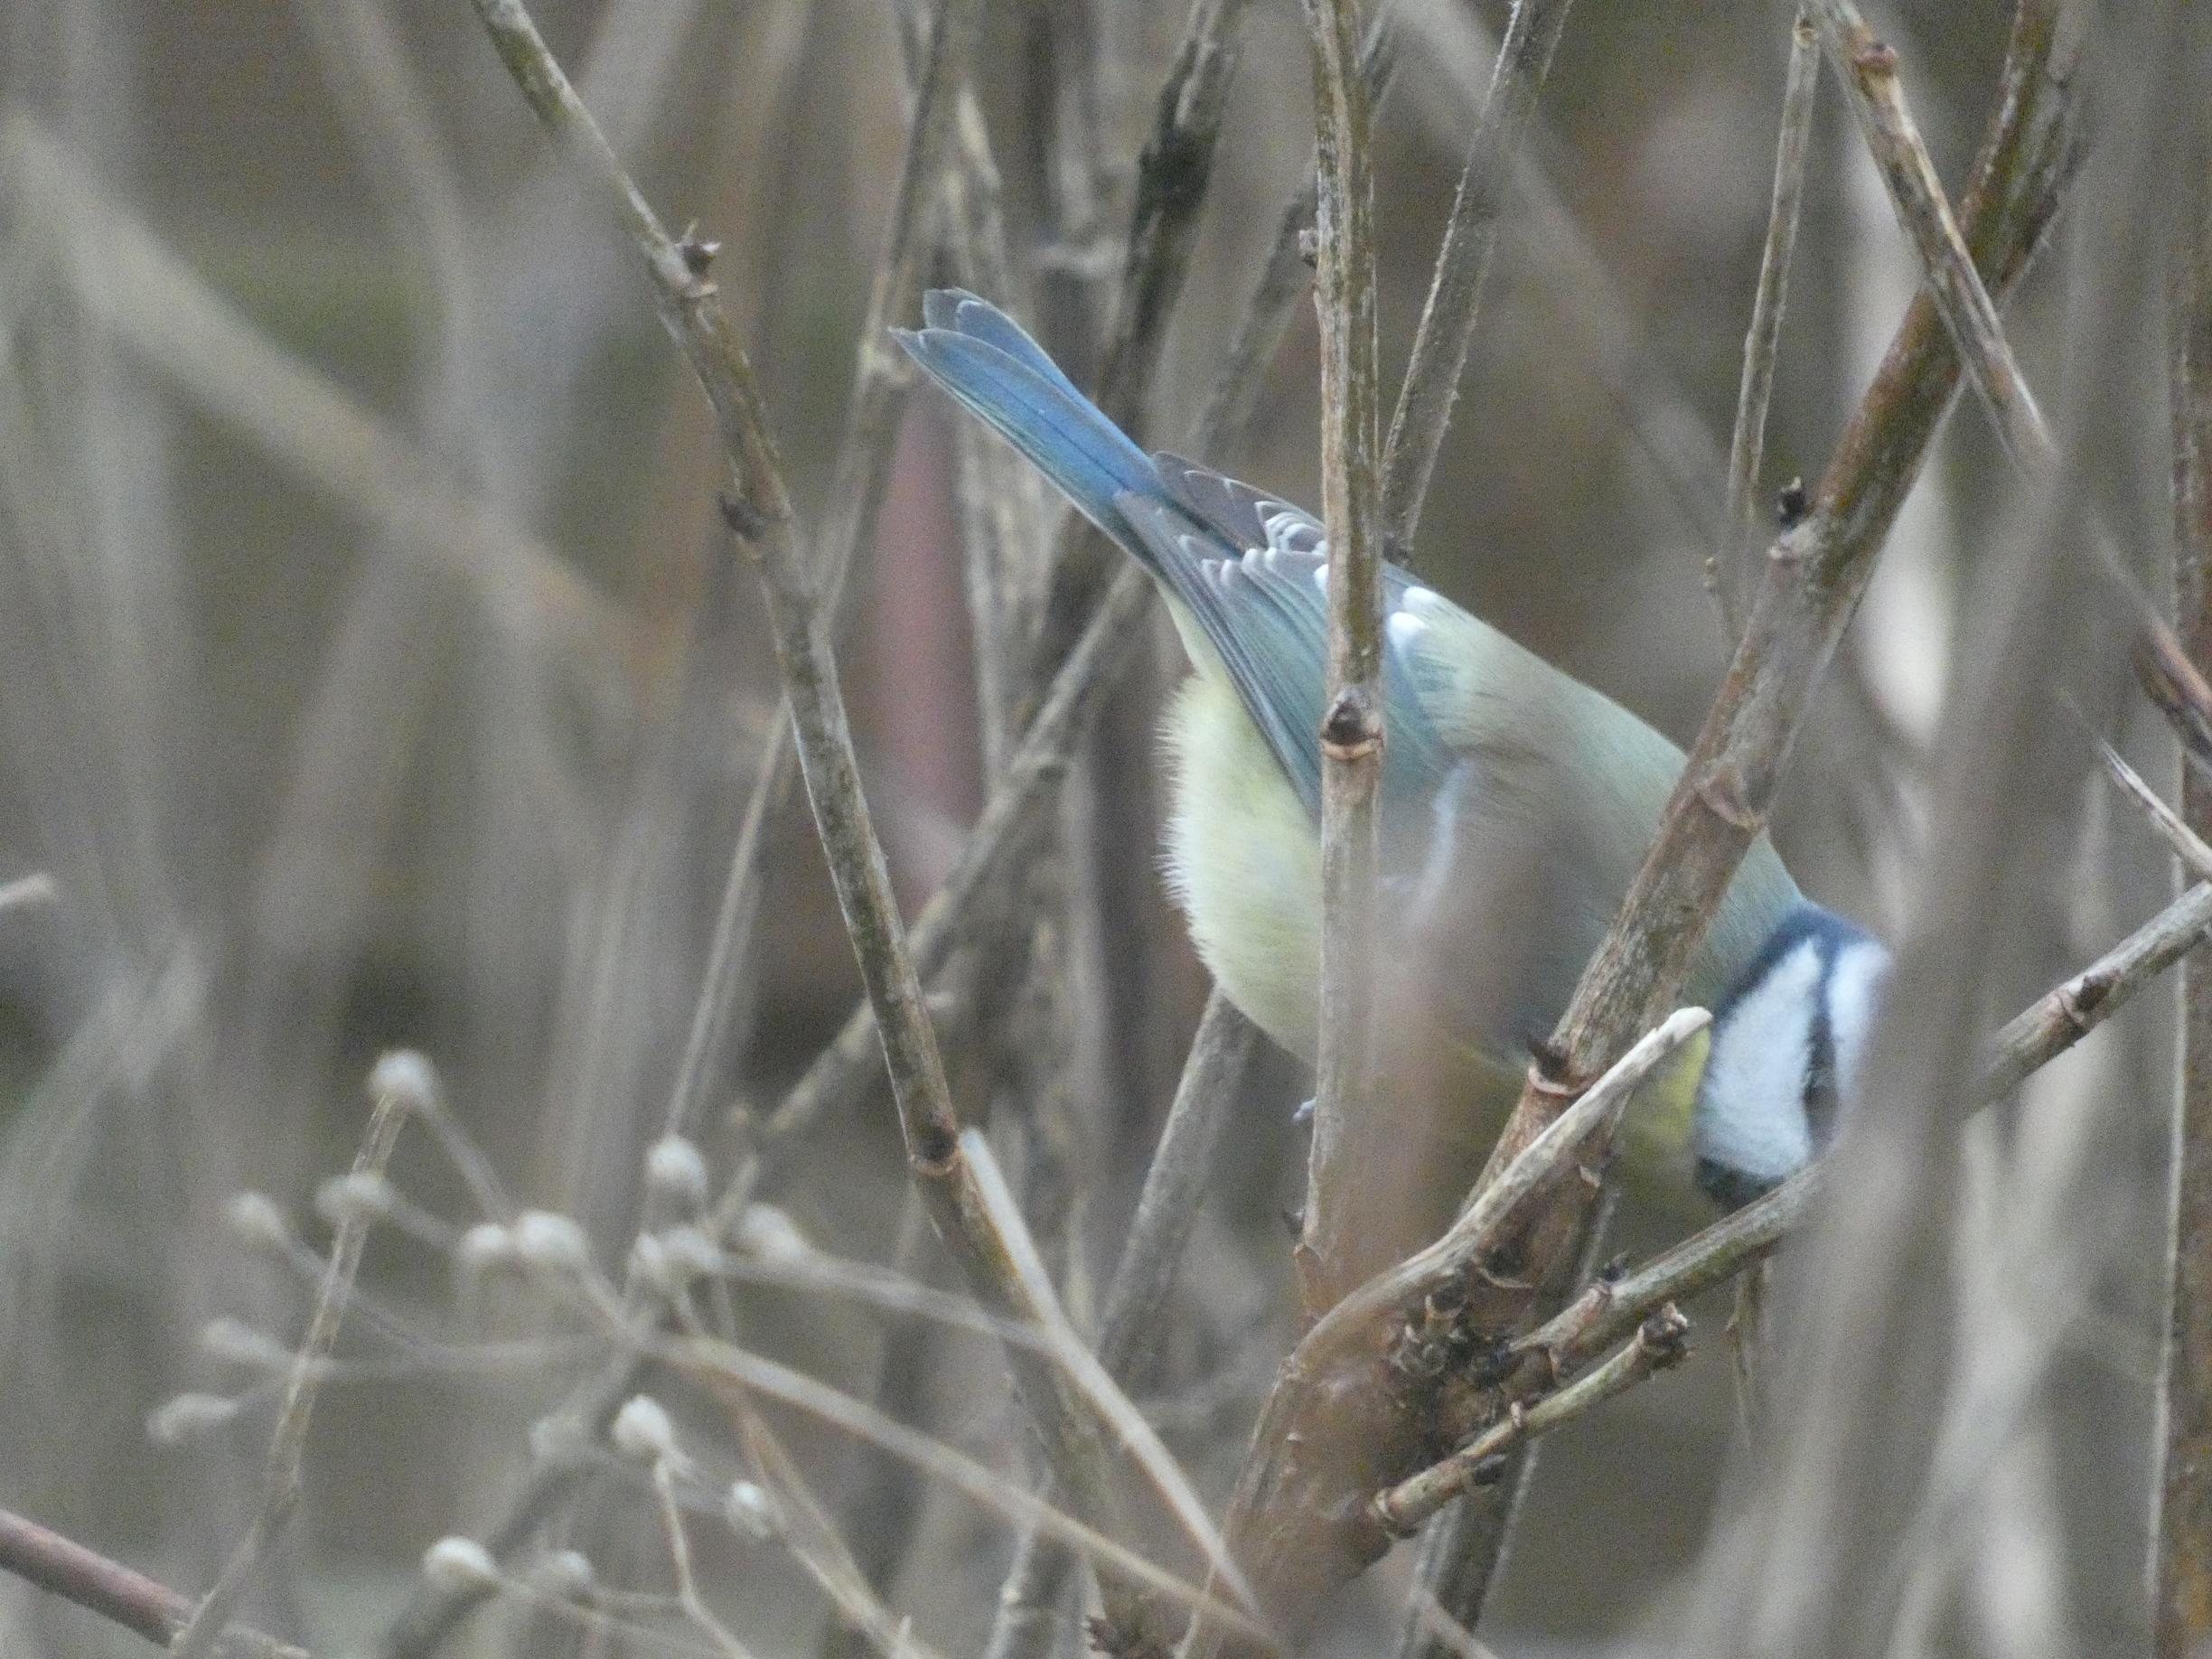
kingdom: Animalia
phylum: Chordata
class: Aves
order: Passeriformes
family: Paridae
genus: Cyanistes
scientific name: Cyanistes caeruleus
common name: Blåmejse
